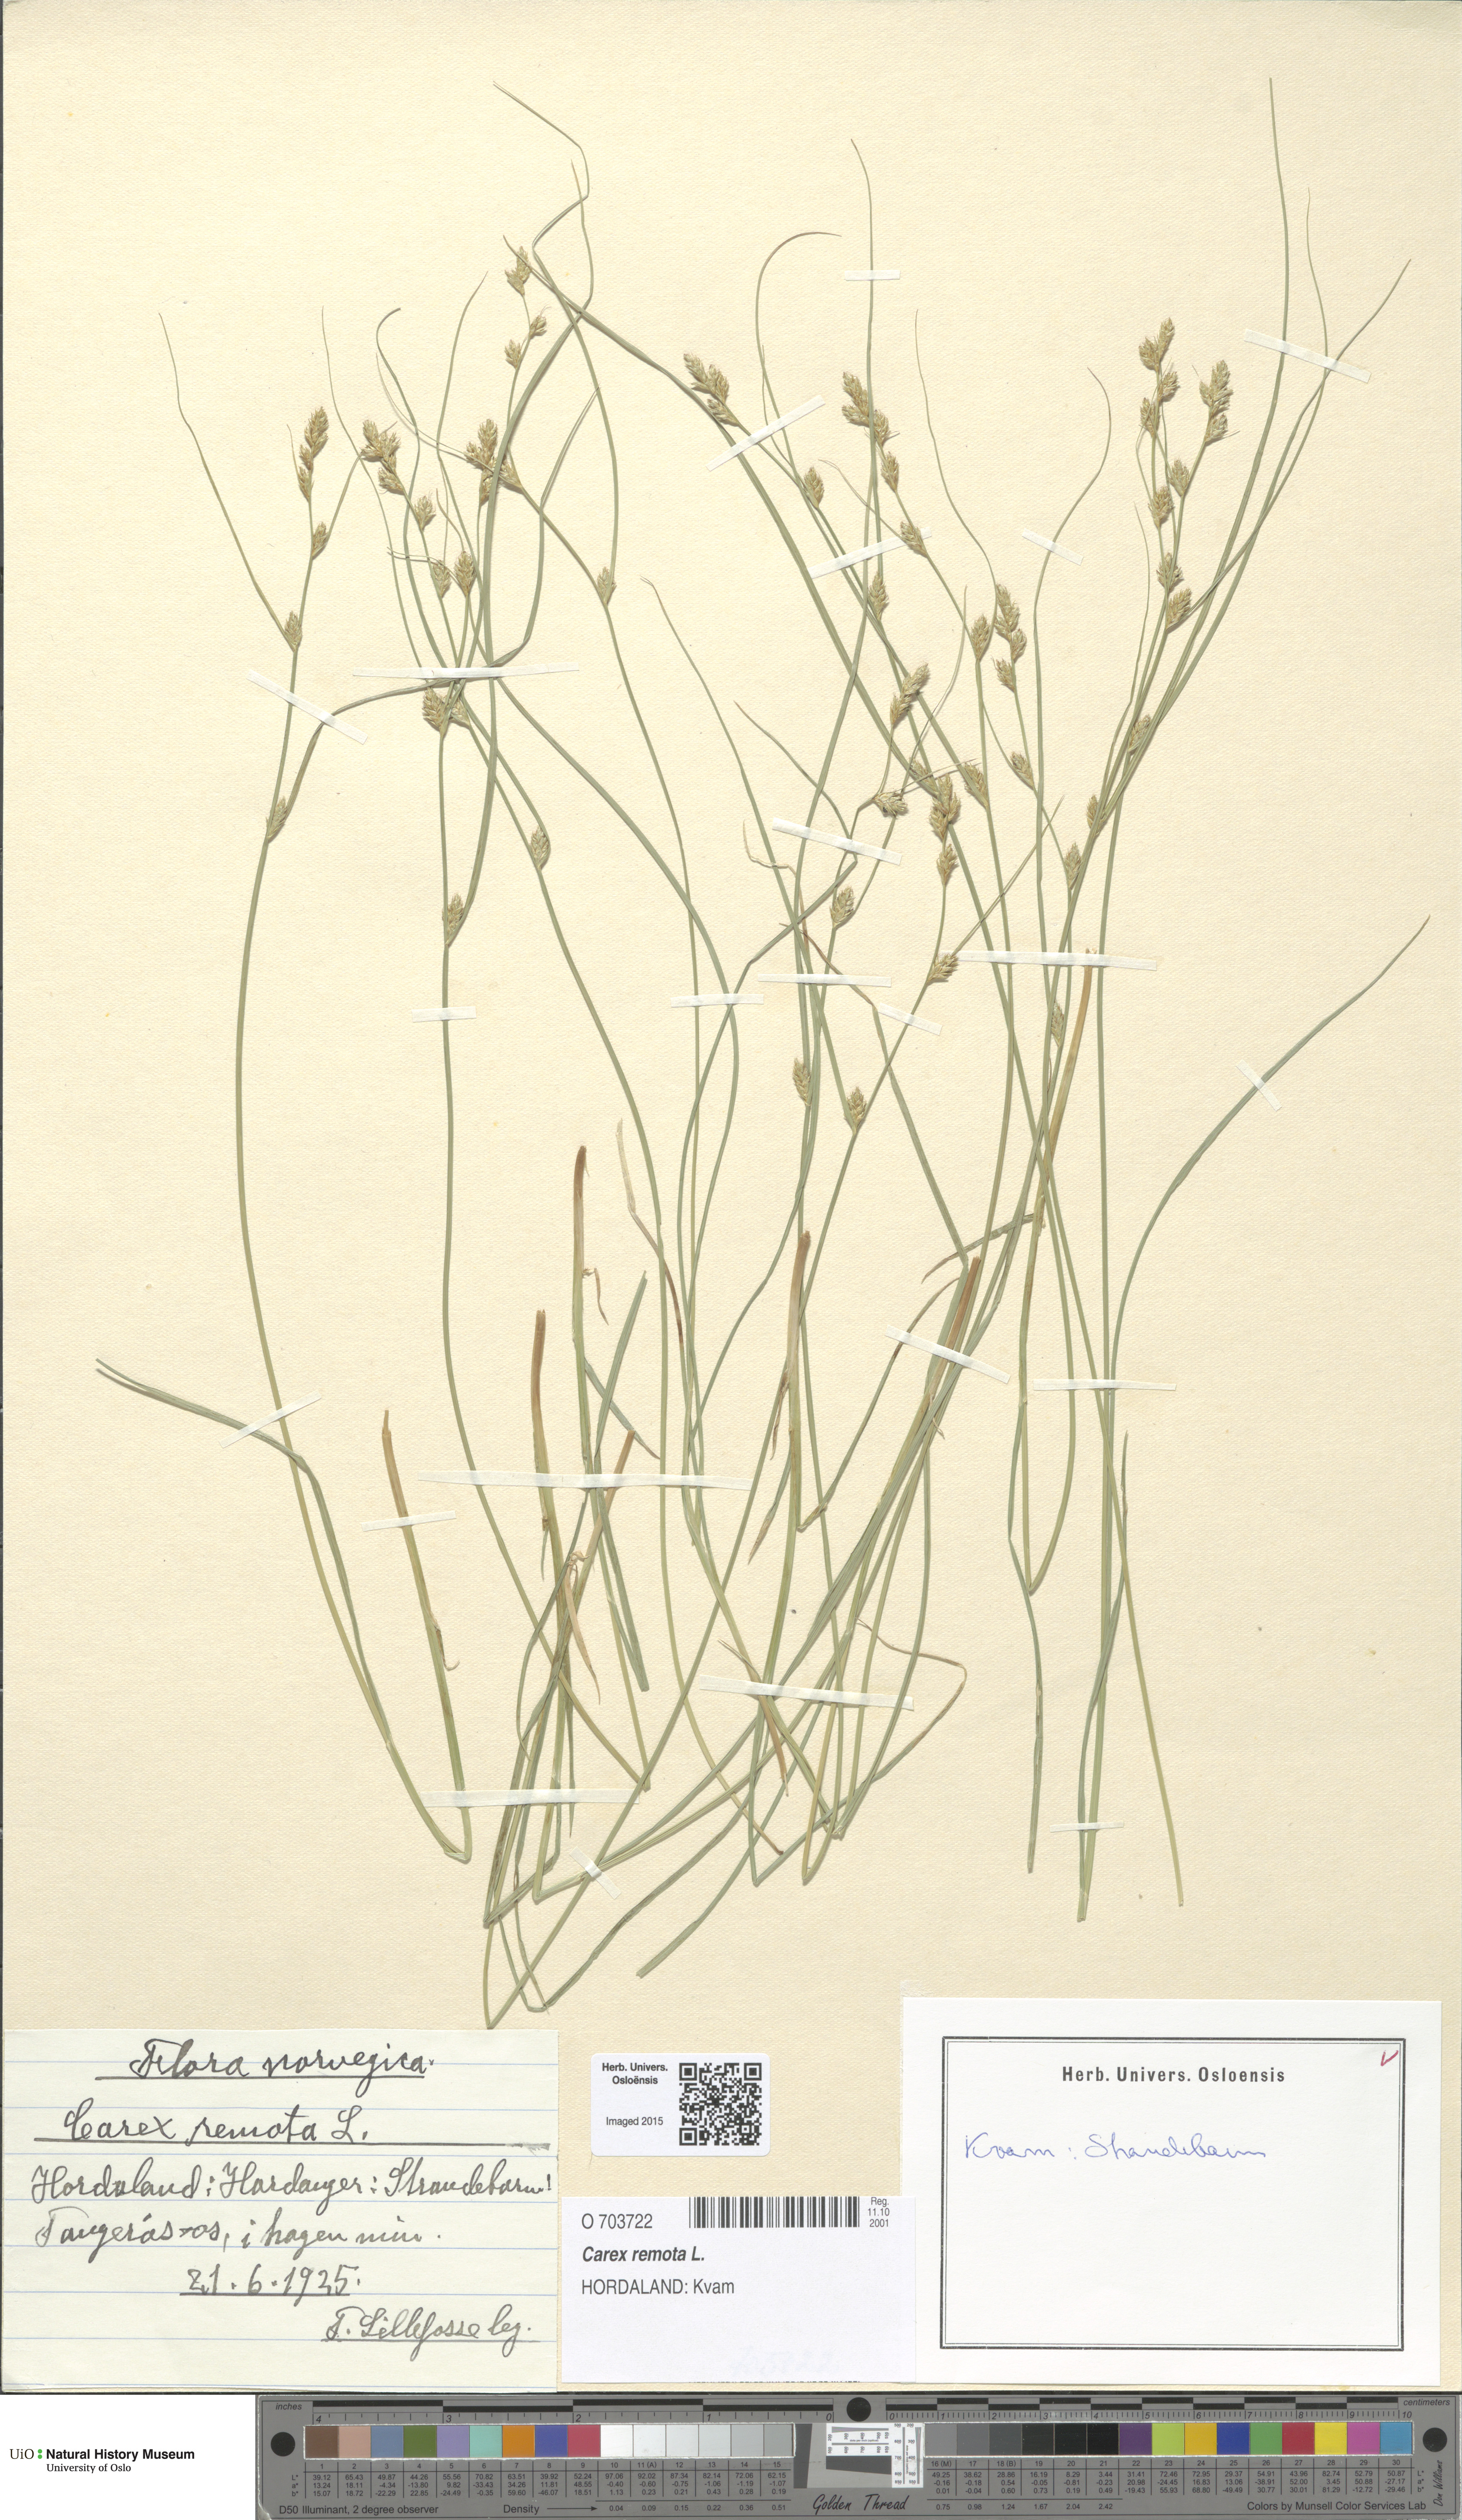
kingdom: Plantae
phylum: Tracheophyta
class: Liliopsida
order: Poales
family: Cyperaceae
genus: Carex
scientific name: Carex remota
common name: Remote sedge
